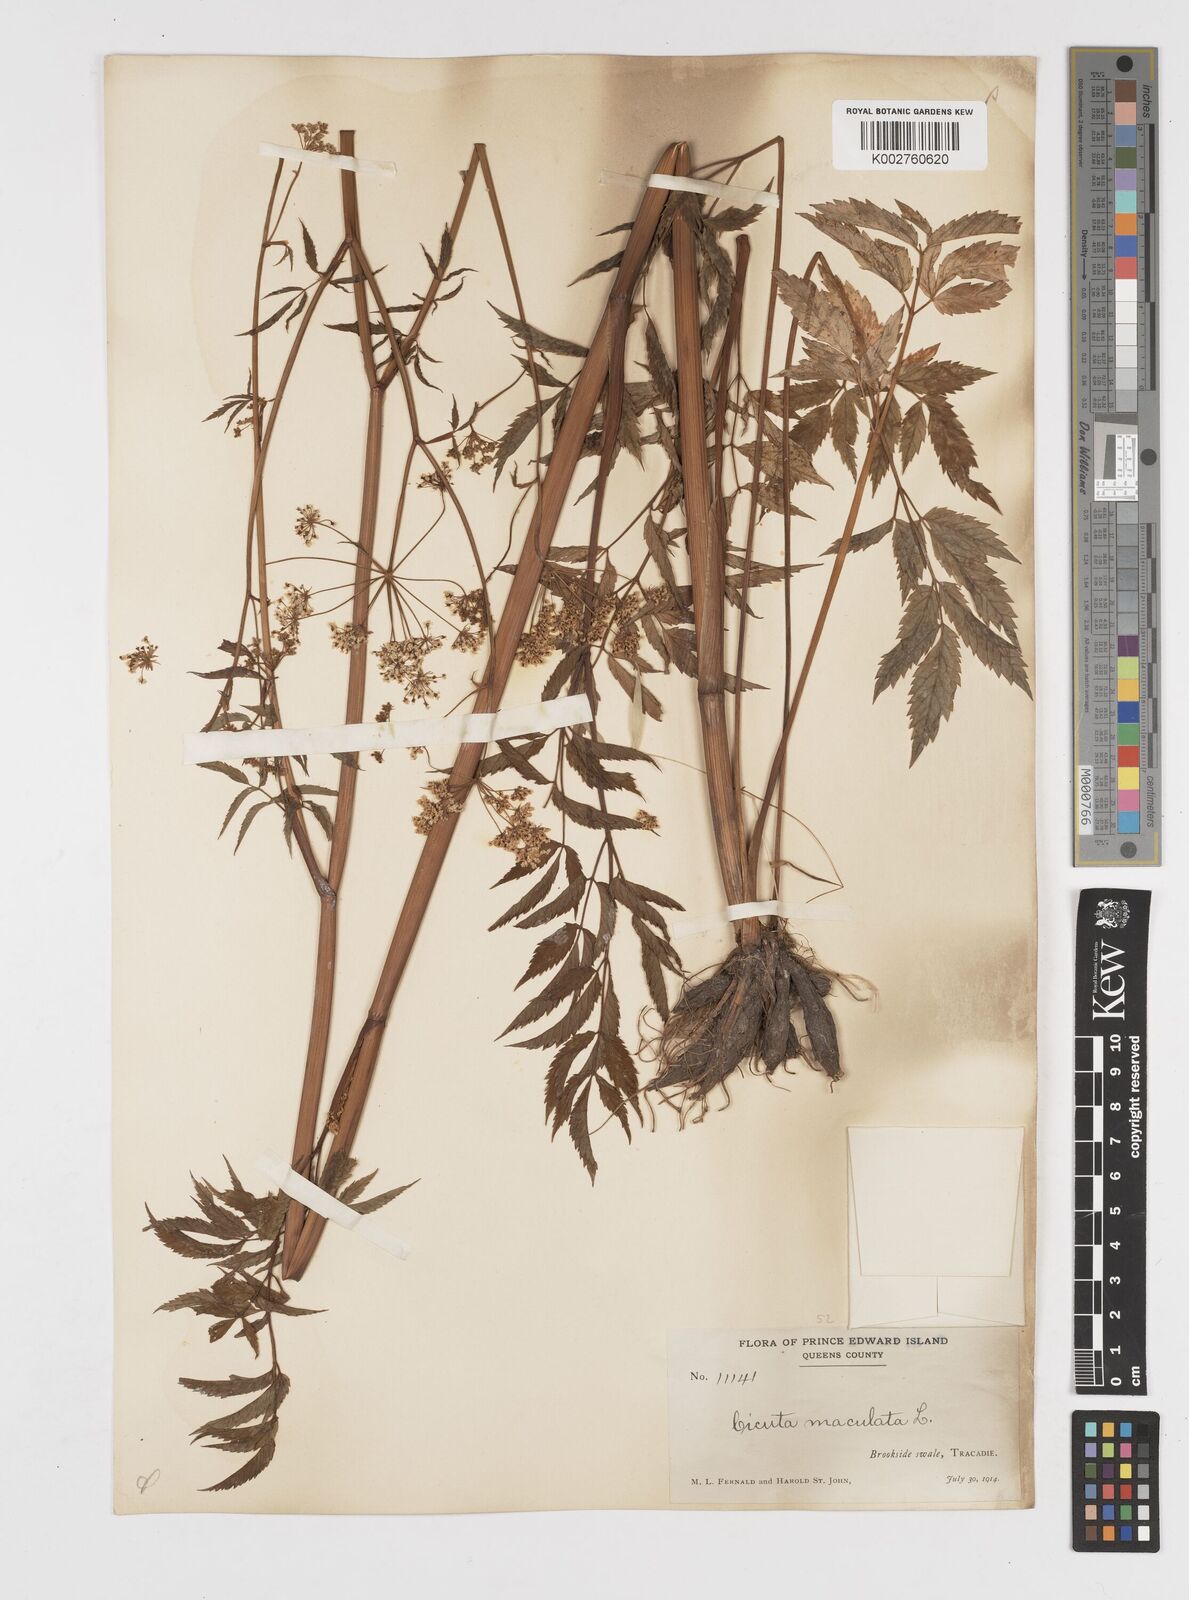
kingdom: Plantae
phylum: Tracheophyta
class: Magnoliopsida
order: Apiales
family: Apiaceae
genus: Cicuta
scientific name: Cicuta maculata
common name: Spotted cowbane
